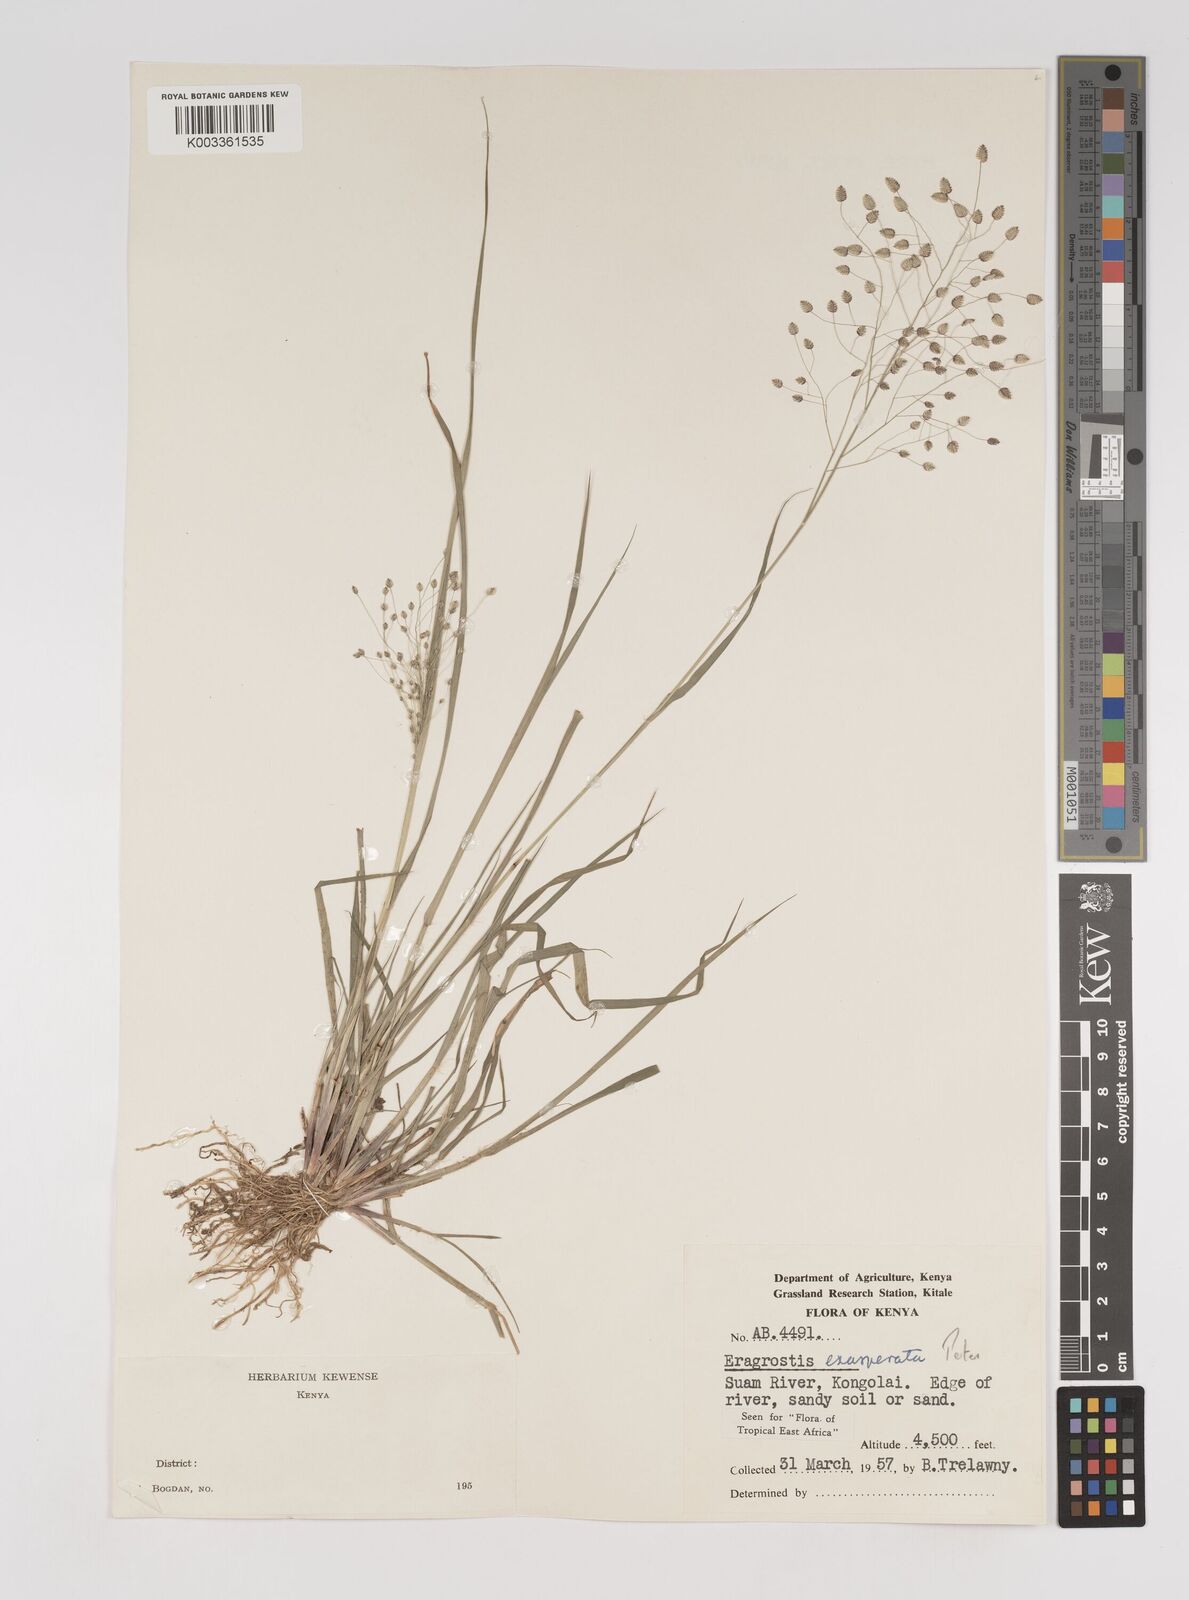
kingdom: Plantae
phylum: Tracheophyta
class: Liliopsida
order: Poales
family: Poaceae
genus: Eragrostis
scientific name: Eragrostis exasperata
